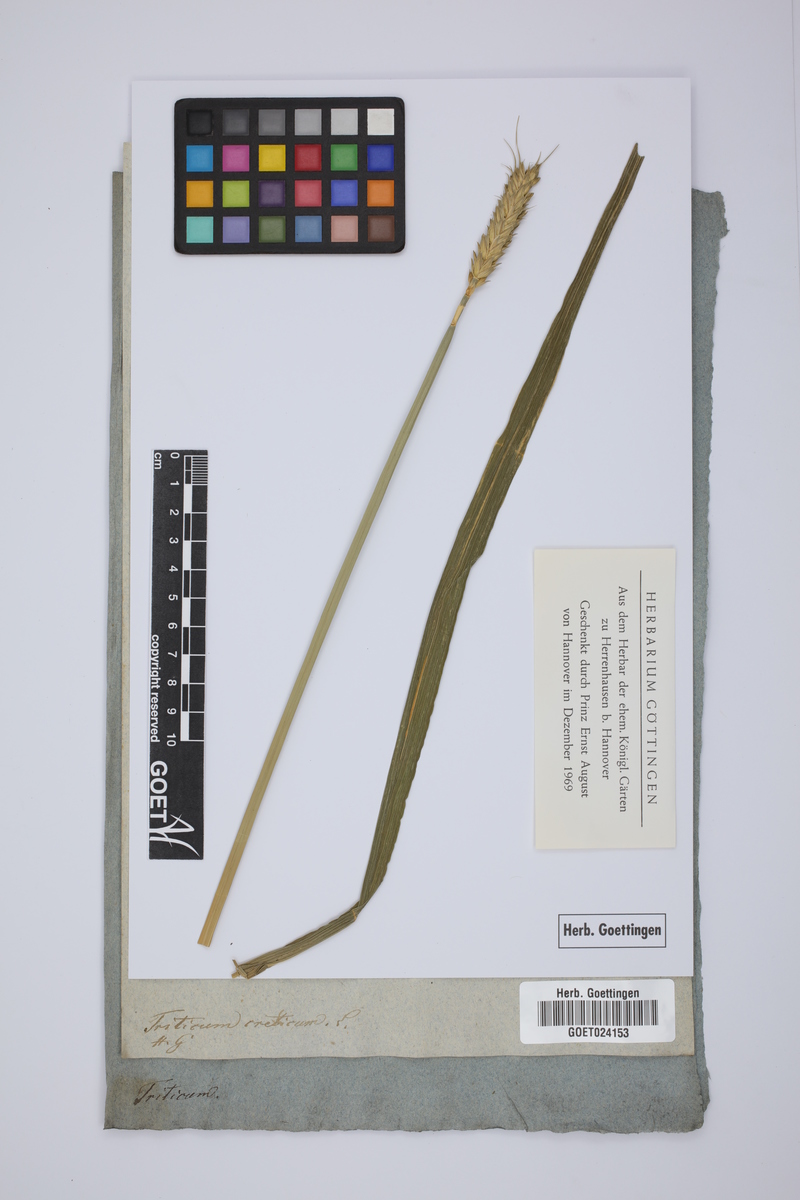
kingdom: Plantae
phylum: Tracheophyta
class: Liliopsida
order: Poales
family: Poaceae
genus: Triticum
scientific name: Triticum aestivum
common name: Common wheat
